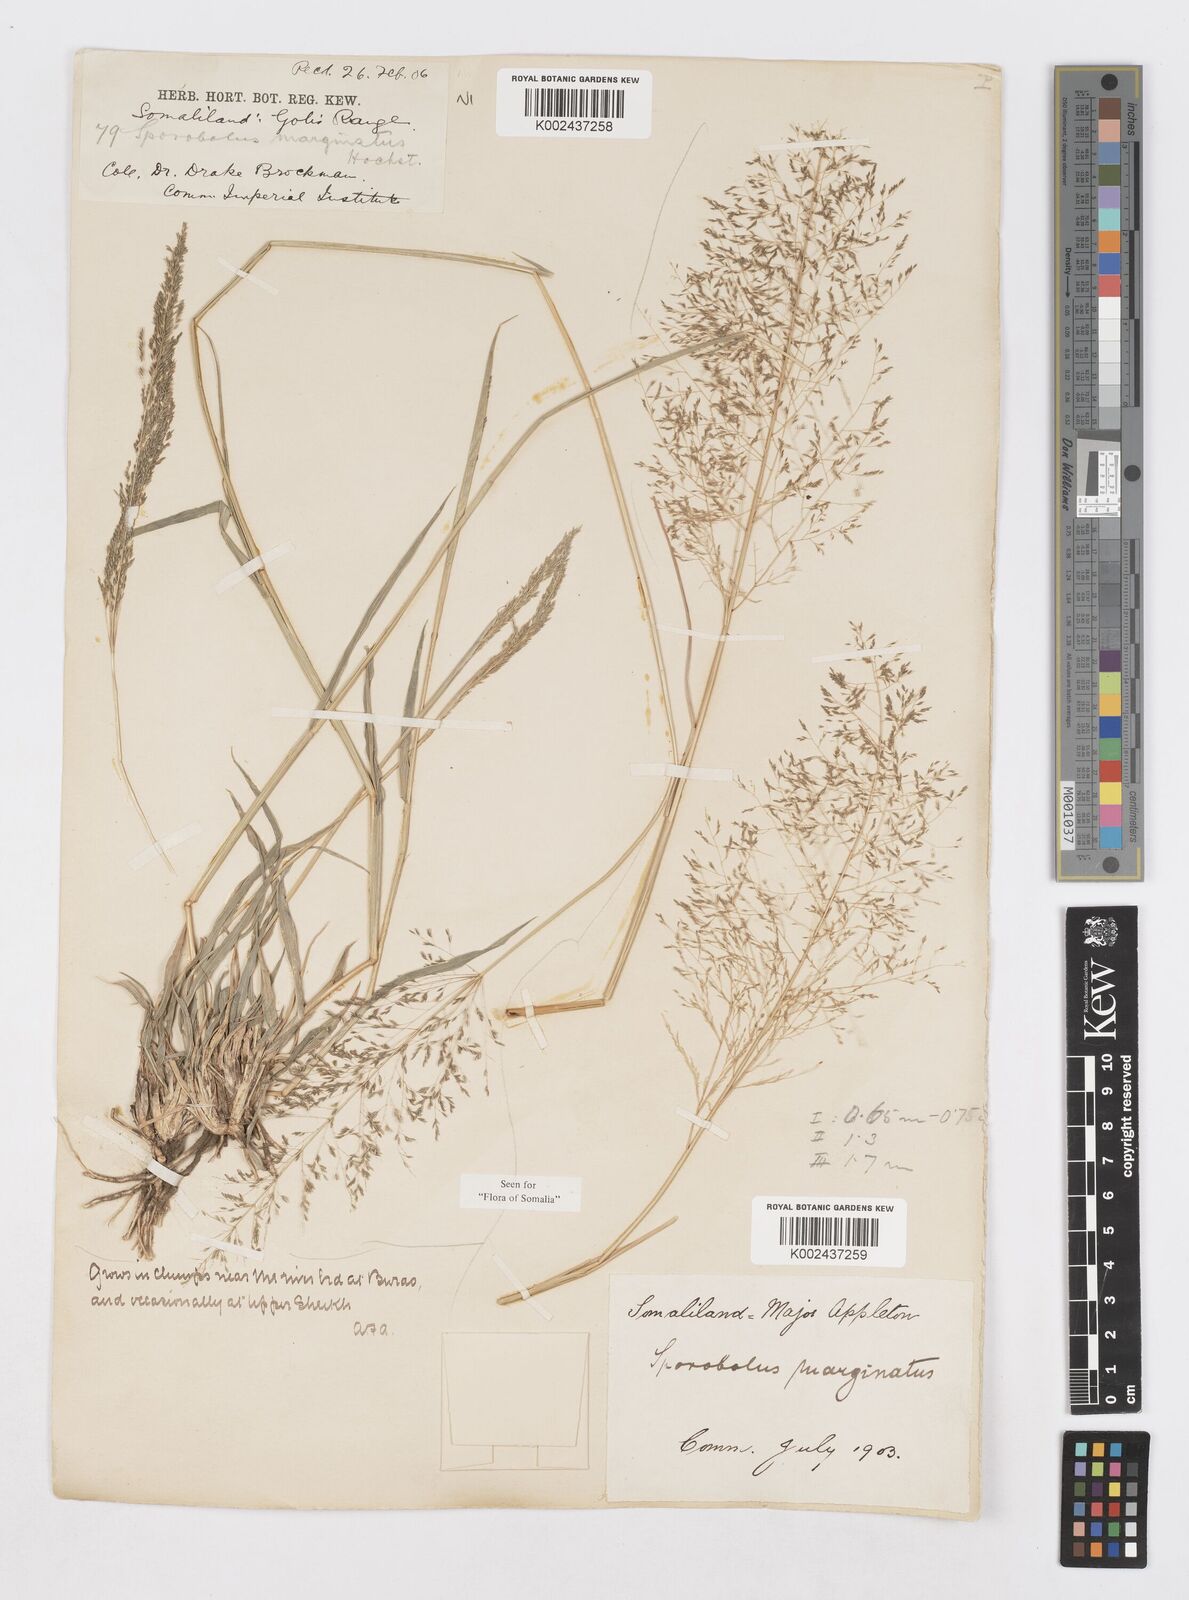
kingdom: Plantae
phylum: Tracheophyta
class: Liliopsida
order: Poales
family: Poaceae
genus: Sporobolus
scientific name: Sporobolus ioclados
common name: Pan dropseed
